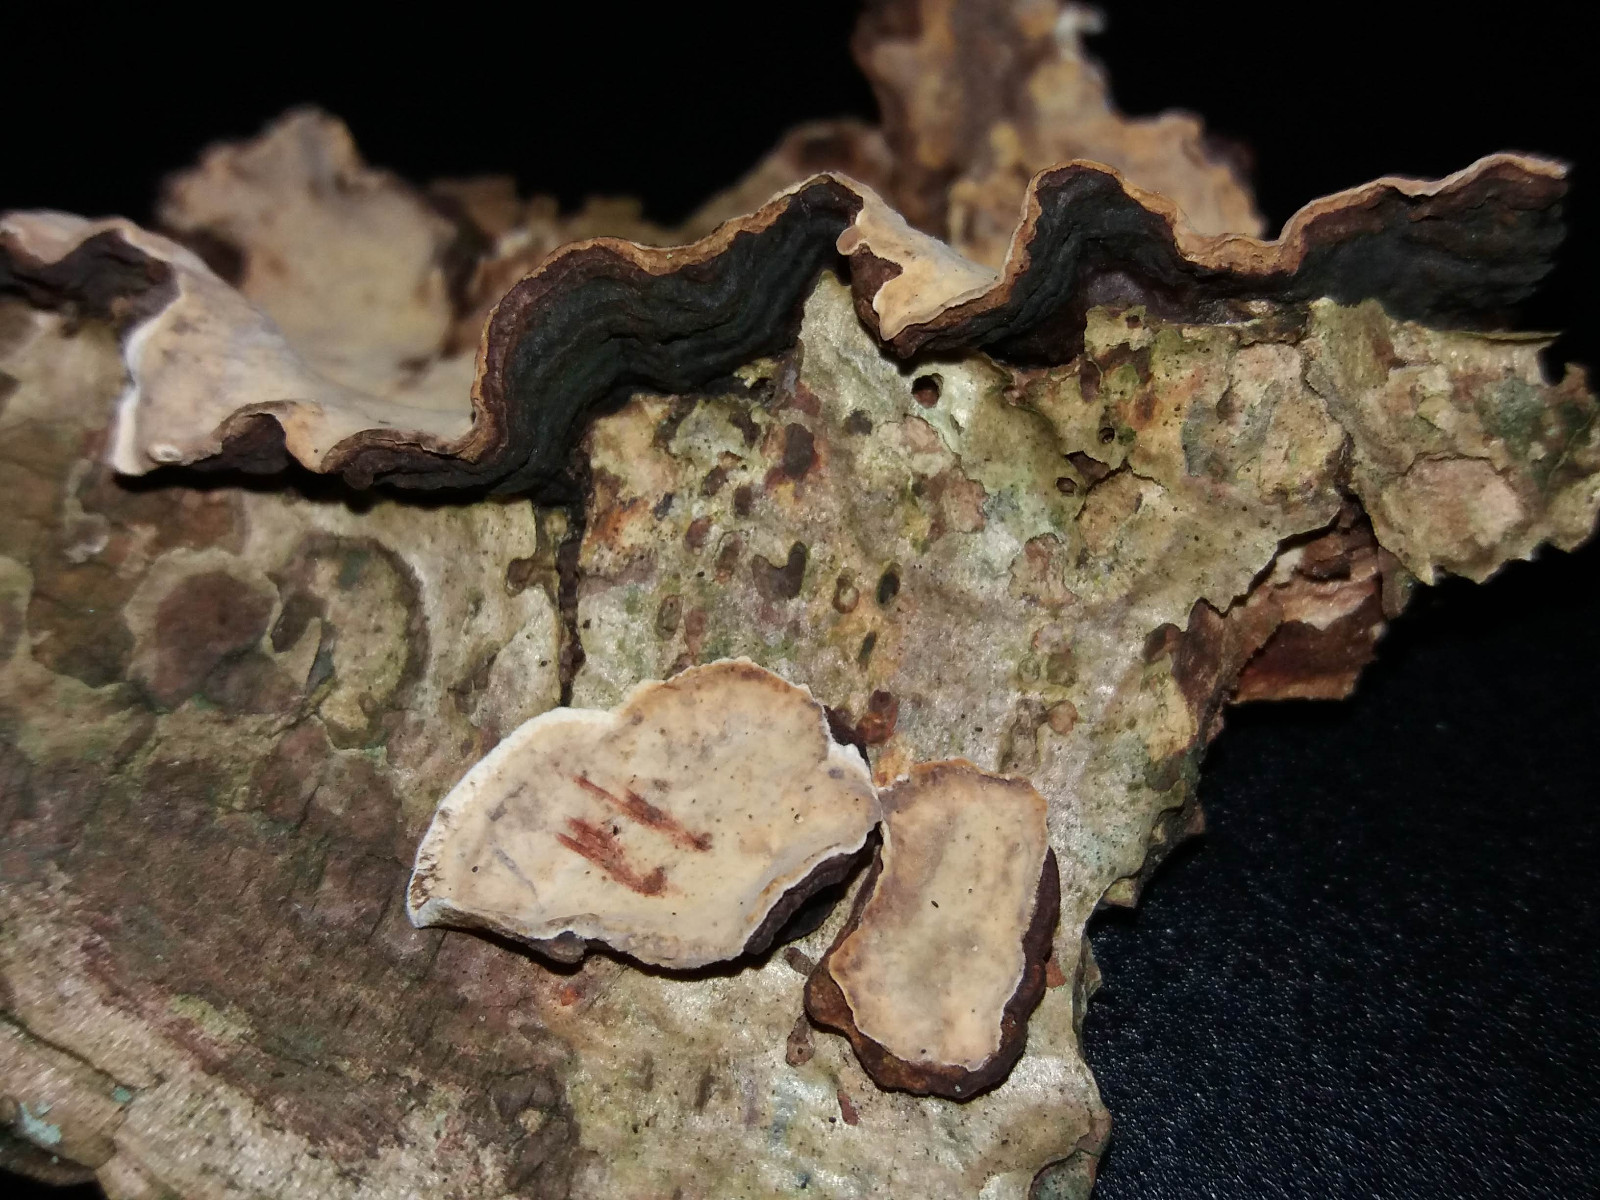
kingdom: Fungi
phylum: Basidiomycota
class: Agaricomycetes
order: Russulales
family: Stereaceae
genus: Stereum
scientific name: Stereum rugosum
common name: rynket lædersvamp
